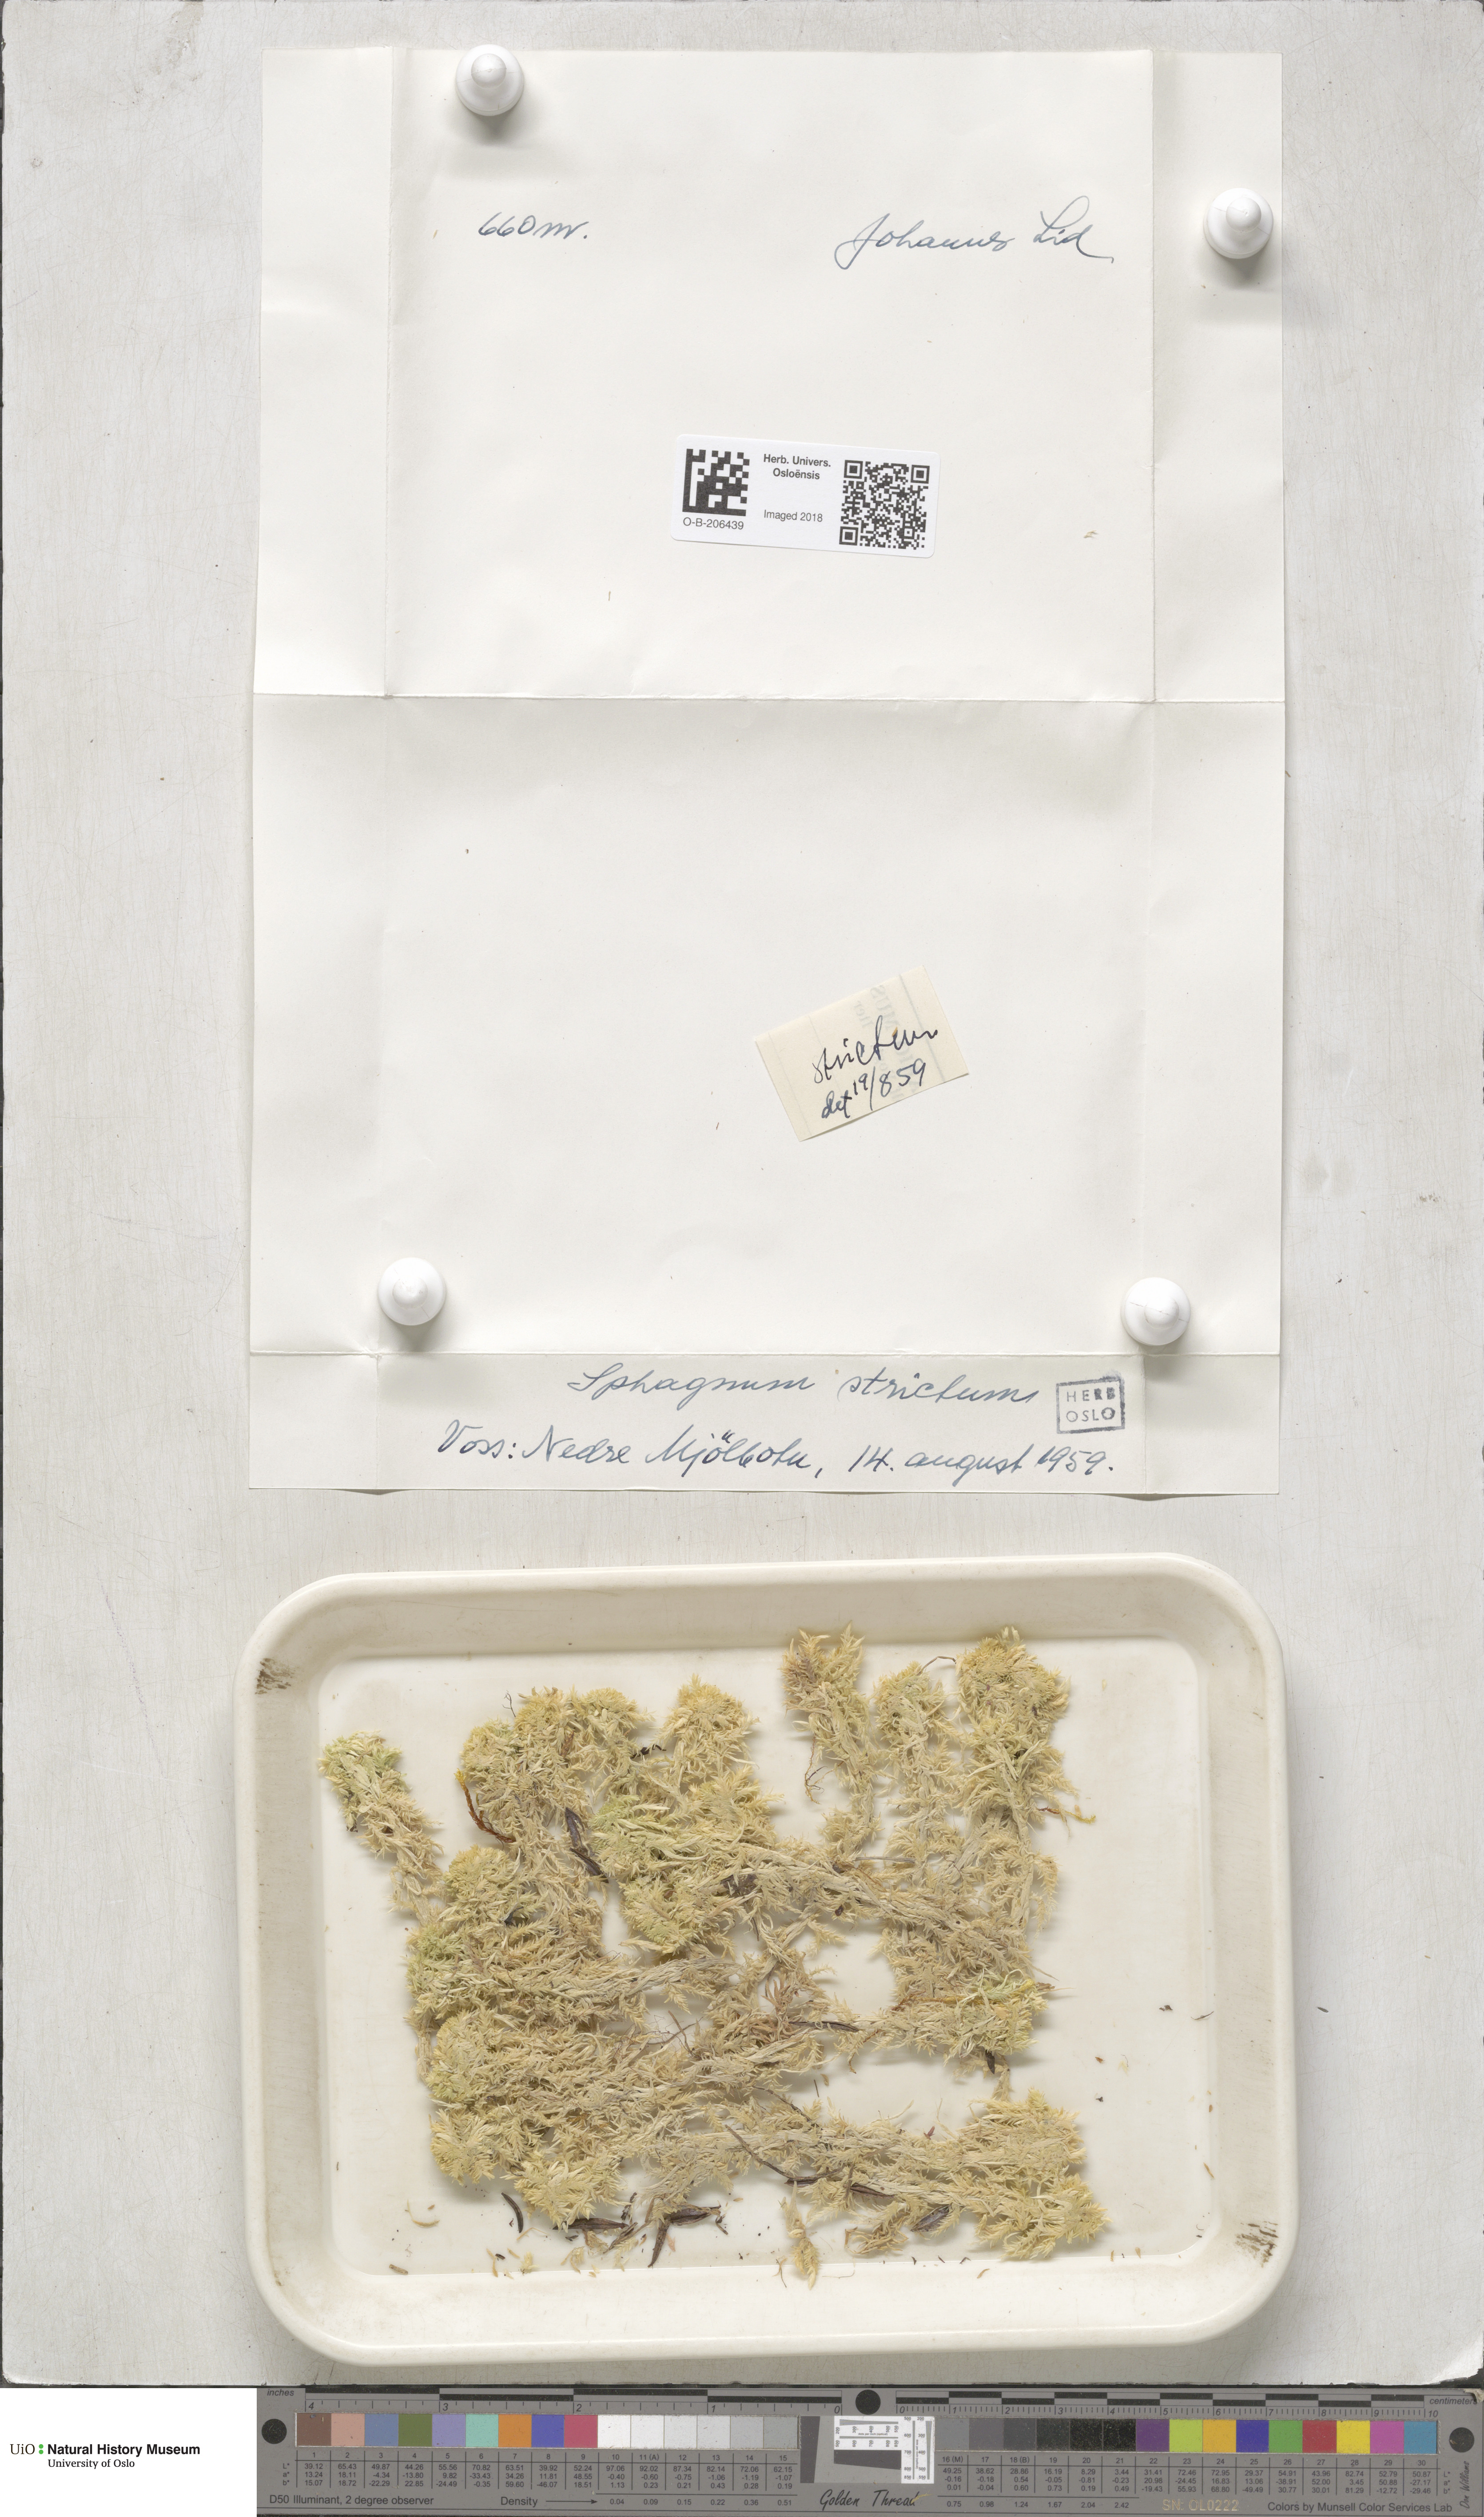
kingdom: Plantae
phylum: Bryophyta
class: Sphagnopsida
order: Sphagnales
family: Sphagnaceae
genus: Sphagnum
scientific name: Sphagnum strictum
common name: Pale bog-moss
